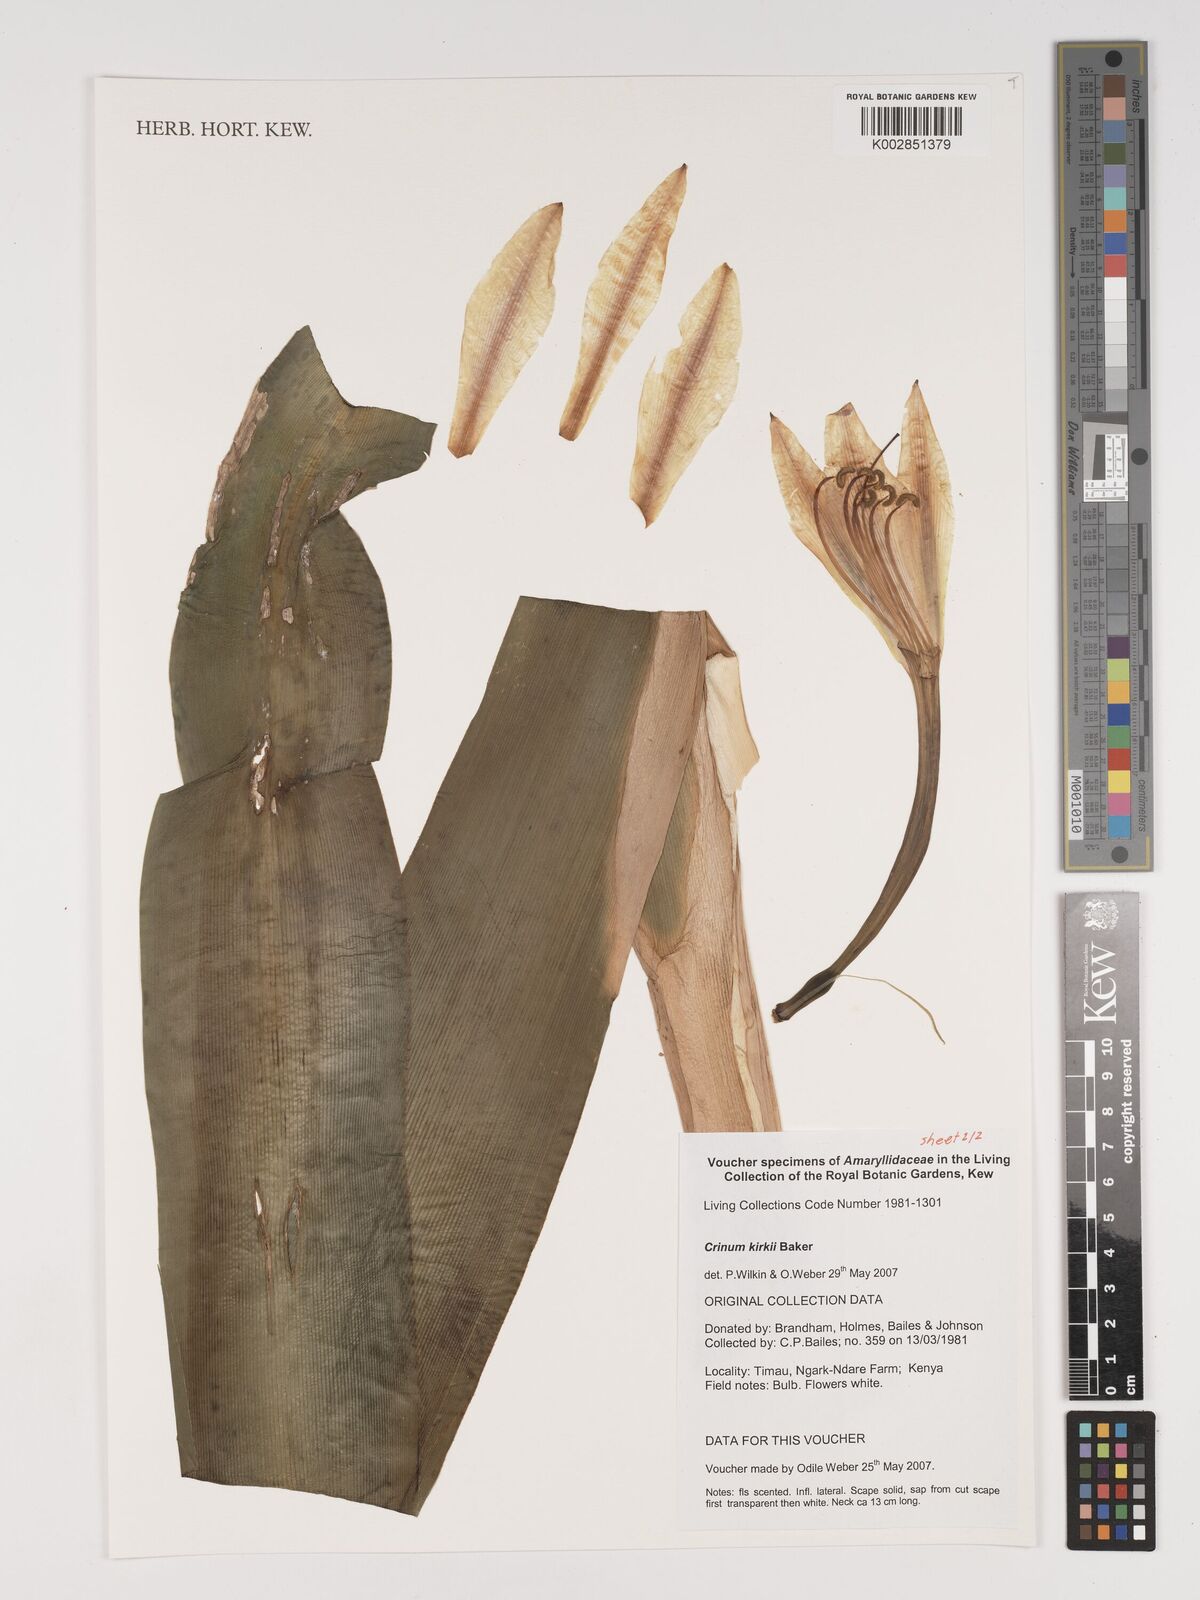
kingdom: Plantae
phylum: Tracheophyta
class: Liliopsida
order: Asparagales
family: Amaryllidaceae
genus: Crinum
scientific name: Crinum kirkii
